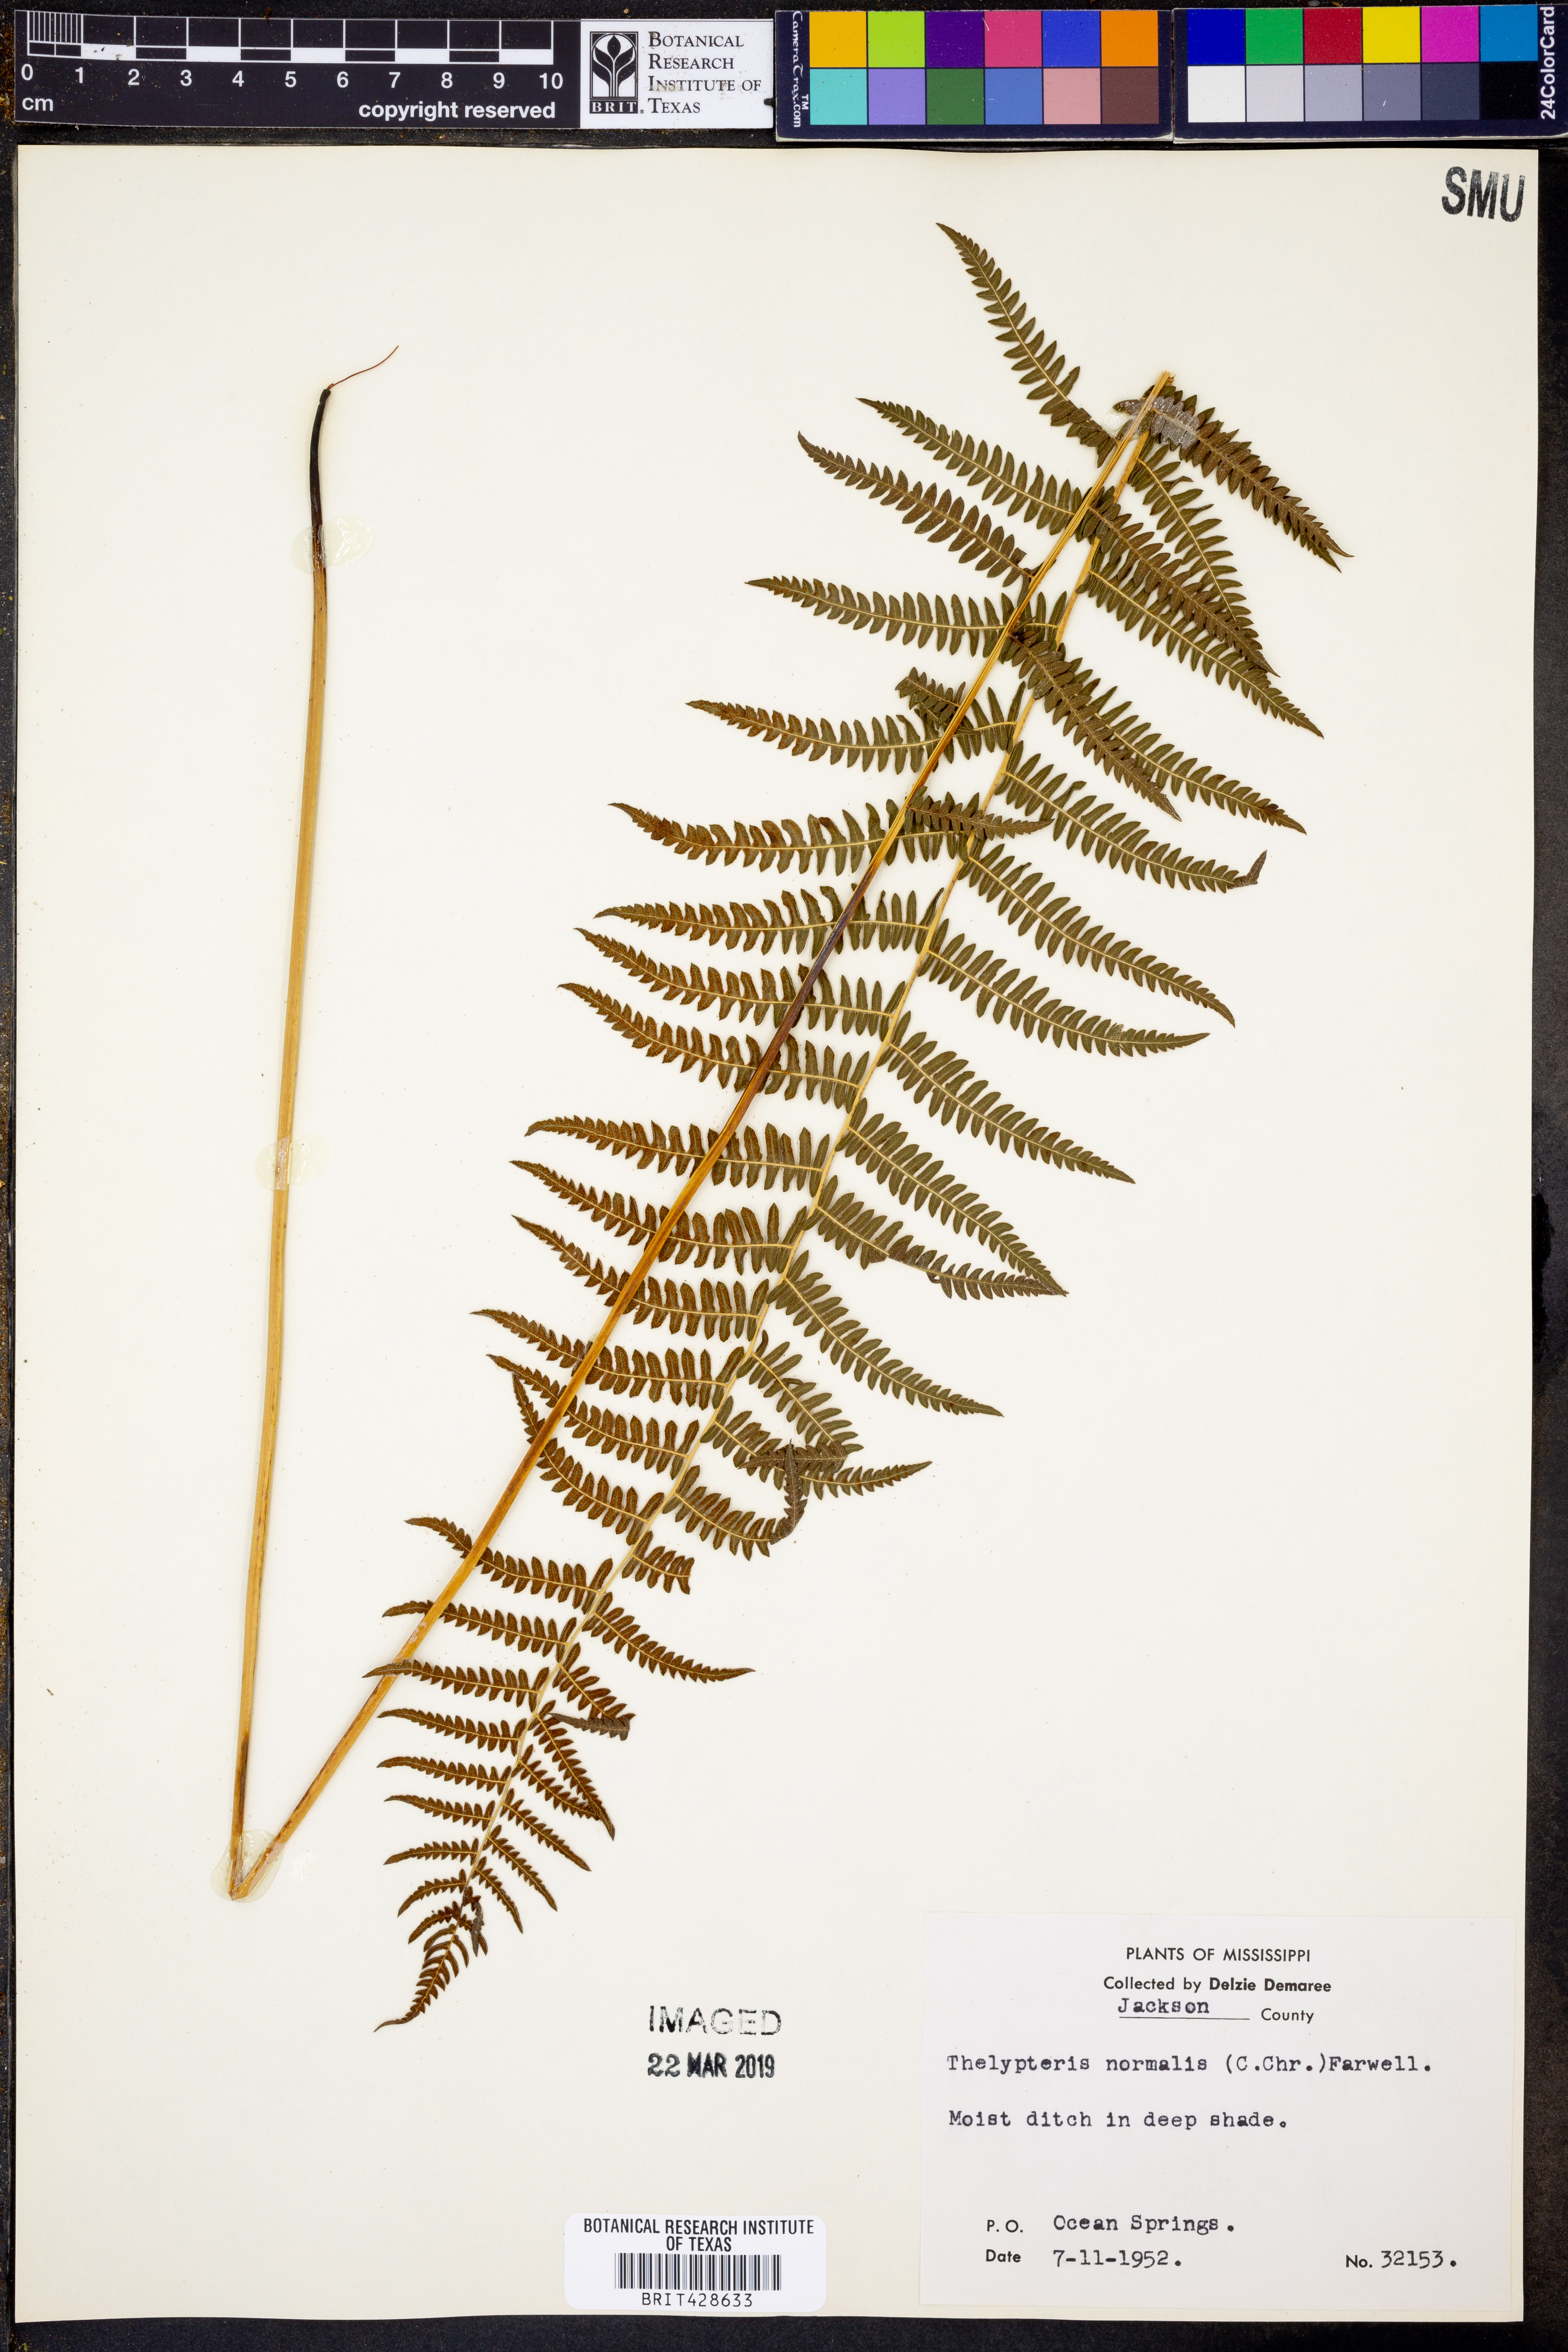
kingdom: Plantae
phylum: Tracheophyta
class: Polypodiopsida
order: Polypodiales
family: Thelypteridaceae
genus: Pelazoneuron
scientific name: Pelazoneuron kunthii
